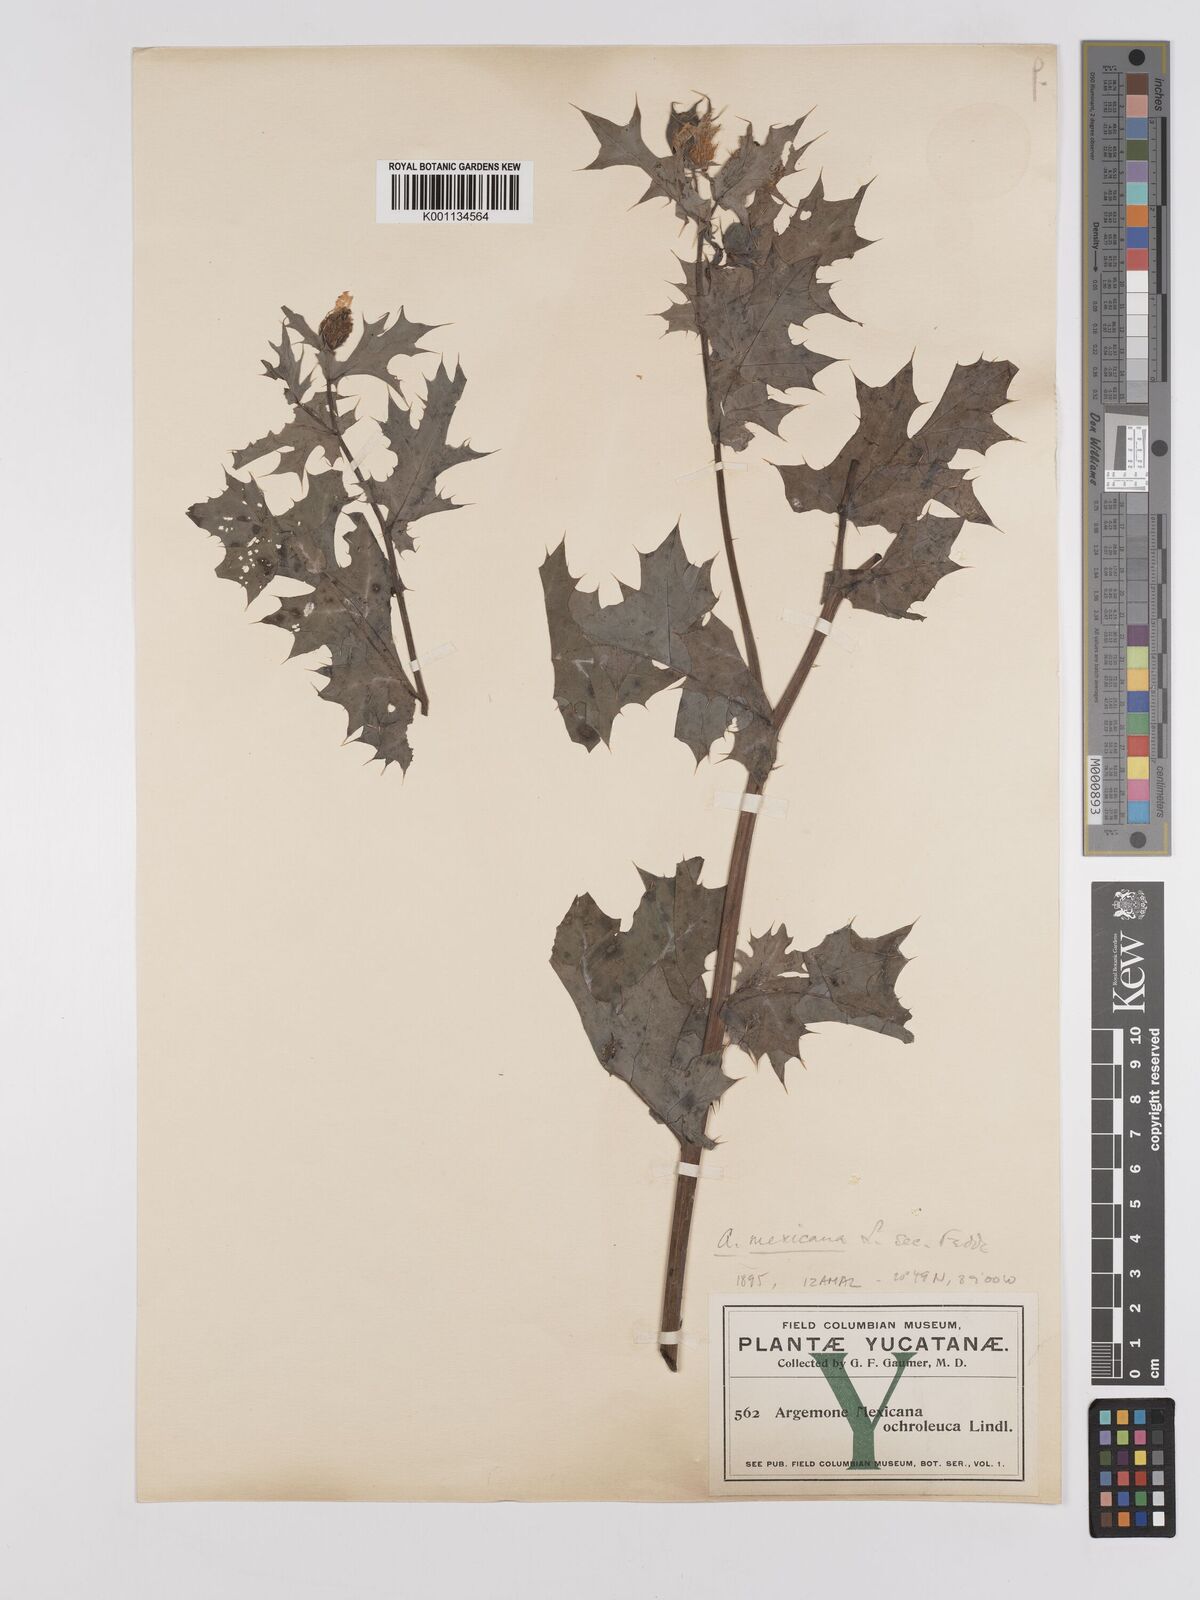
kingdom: Plantae
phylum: Tracheophyta
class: Magnoliopsida
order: Ranunculales
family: Papaveraceae
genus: Argemone
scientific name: Argemone mexicana
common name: Mexican poppy
